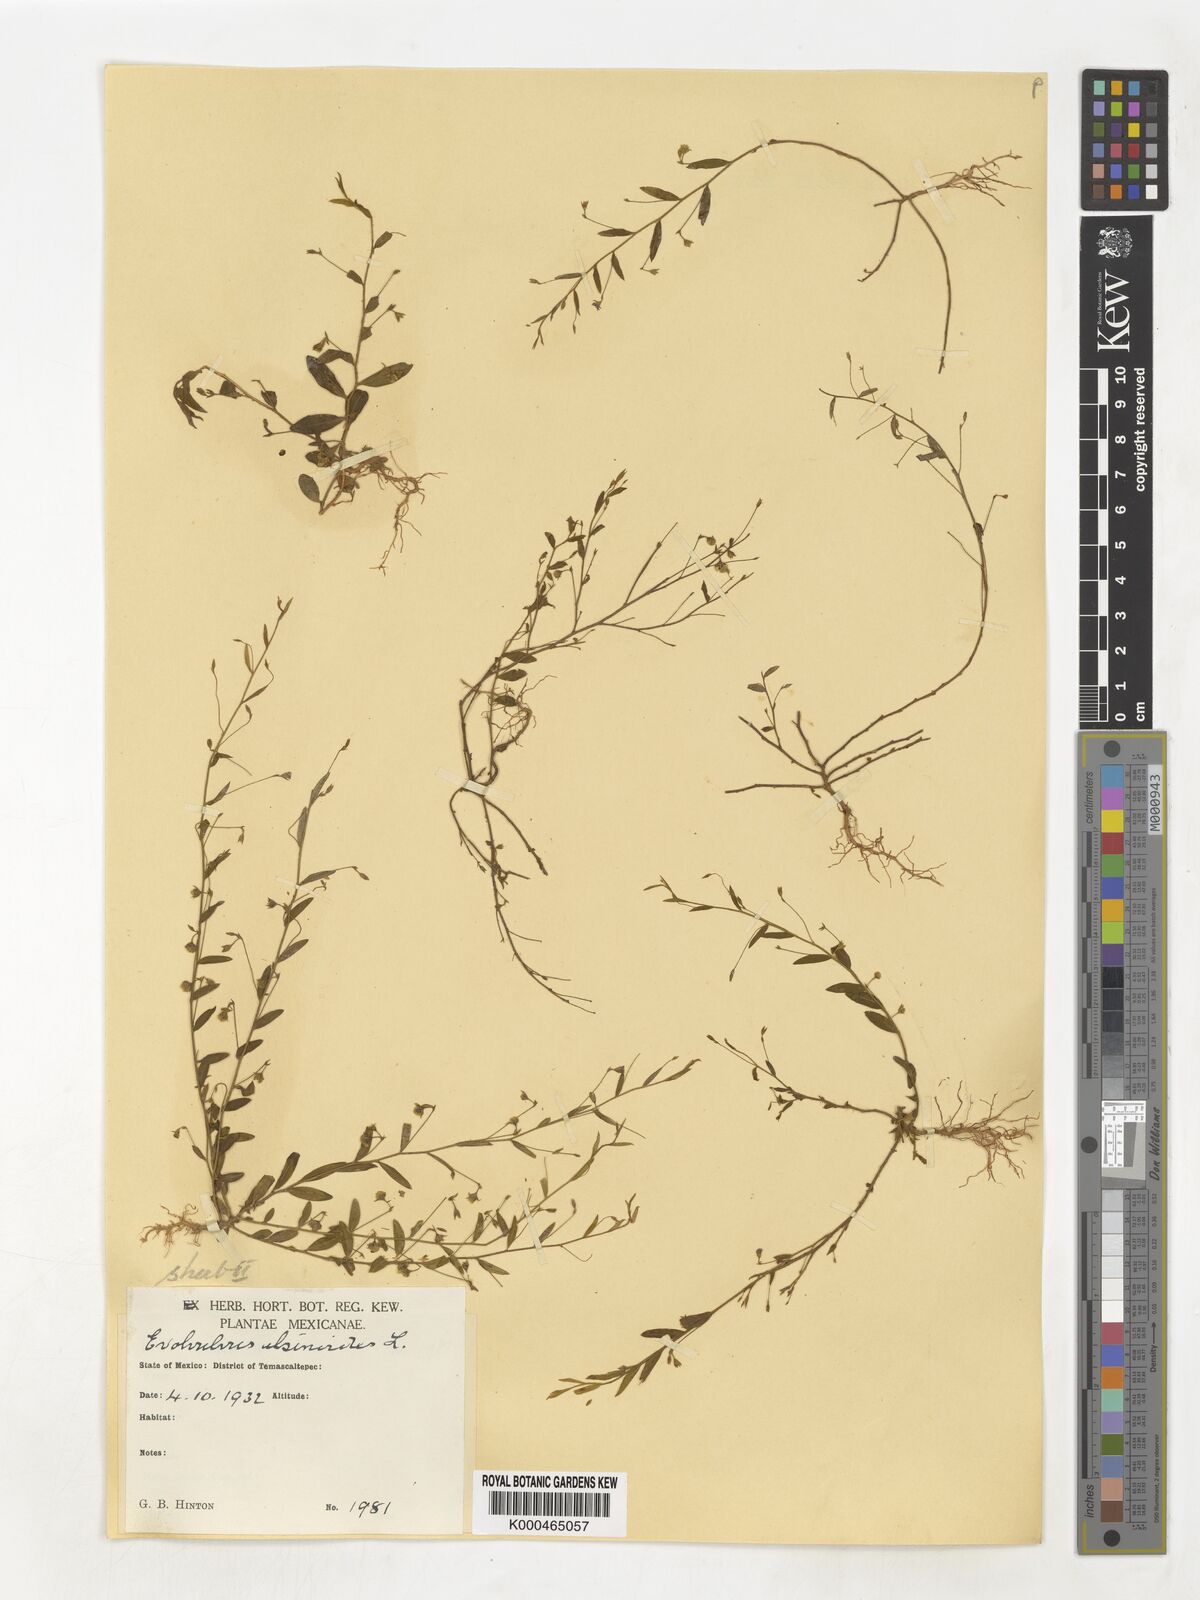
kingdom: Plantae
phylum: Tracheophyta
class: Magnoliopsida
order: Solanales
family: Convolvulaceae
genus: Evolvulus
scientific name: Evolvulus alsinoides
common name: Slender dwarf morning-glory
